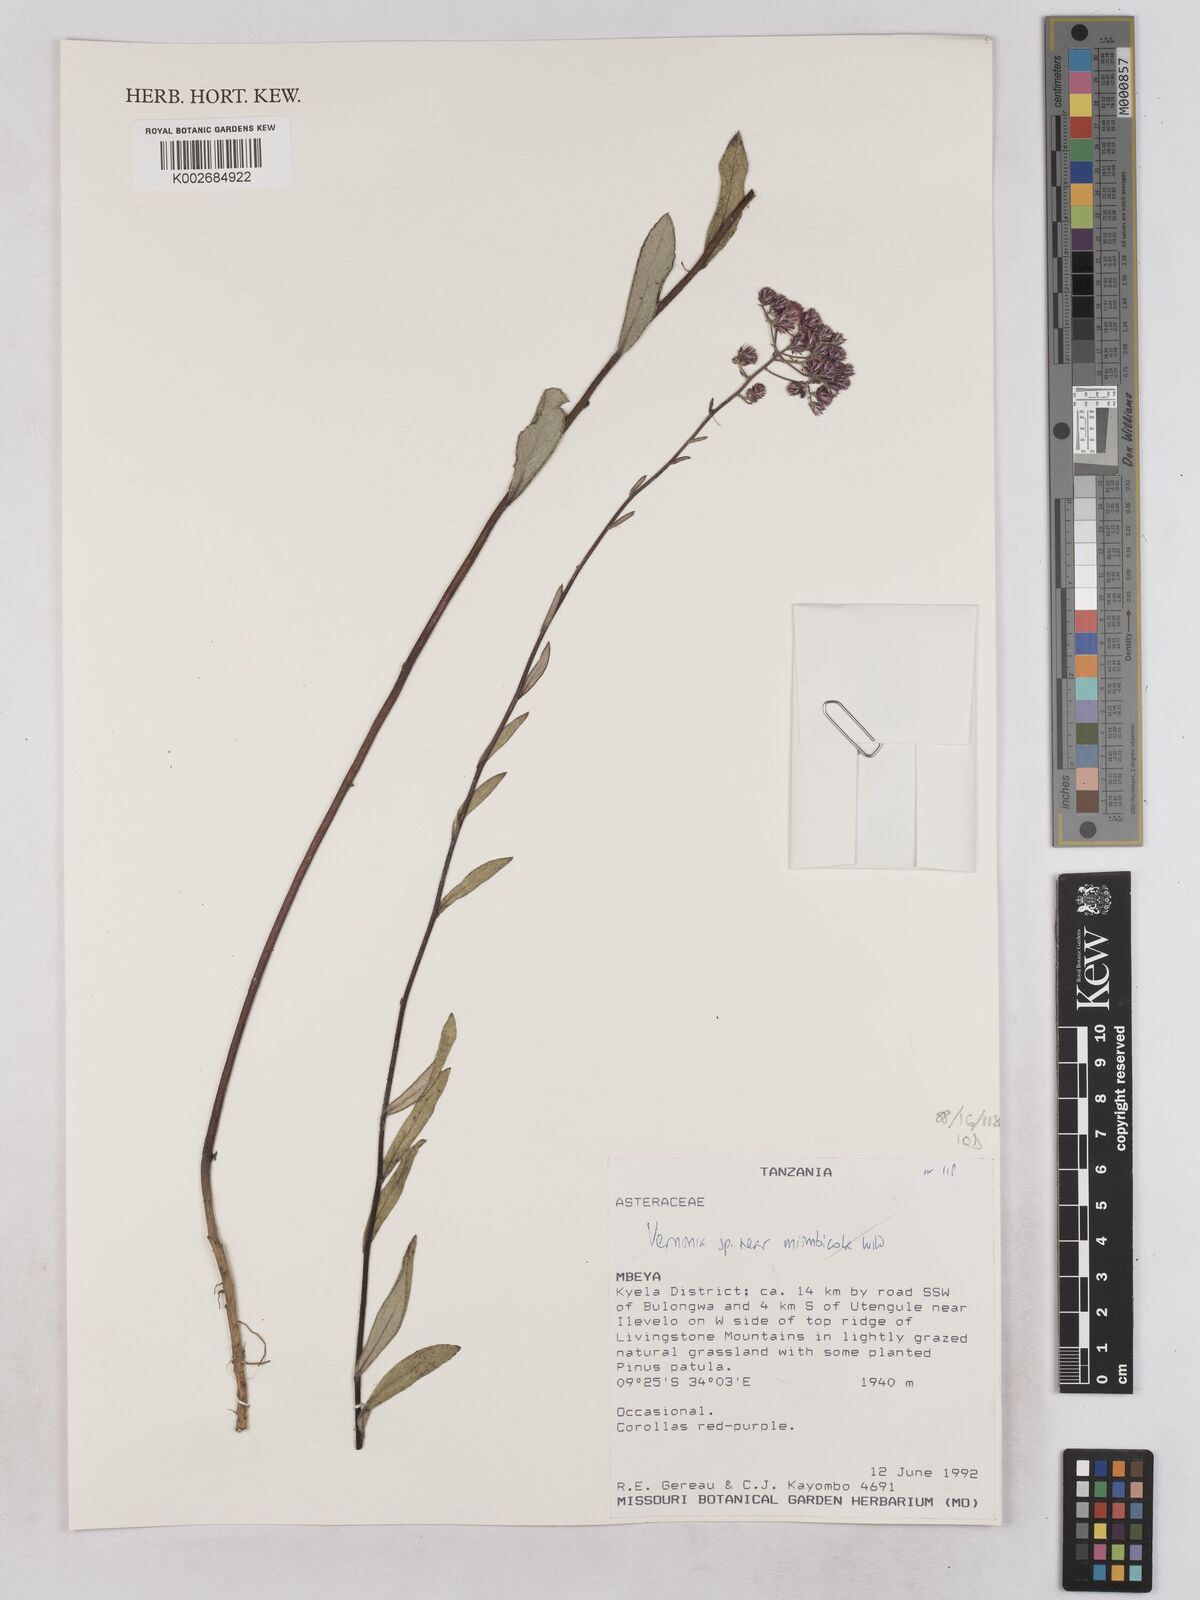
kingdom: Plantae
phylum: Tracheophyta
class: Magnoliopsida
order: Asterales
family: Asteraceae
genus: Vernonia
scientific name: Vernonia miombicola
